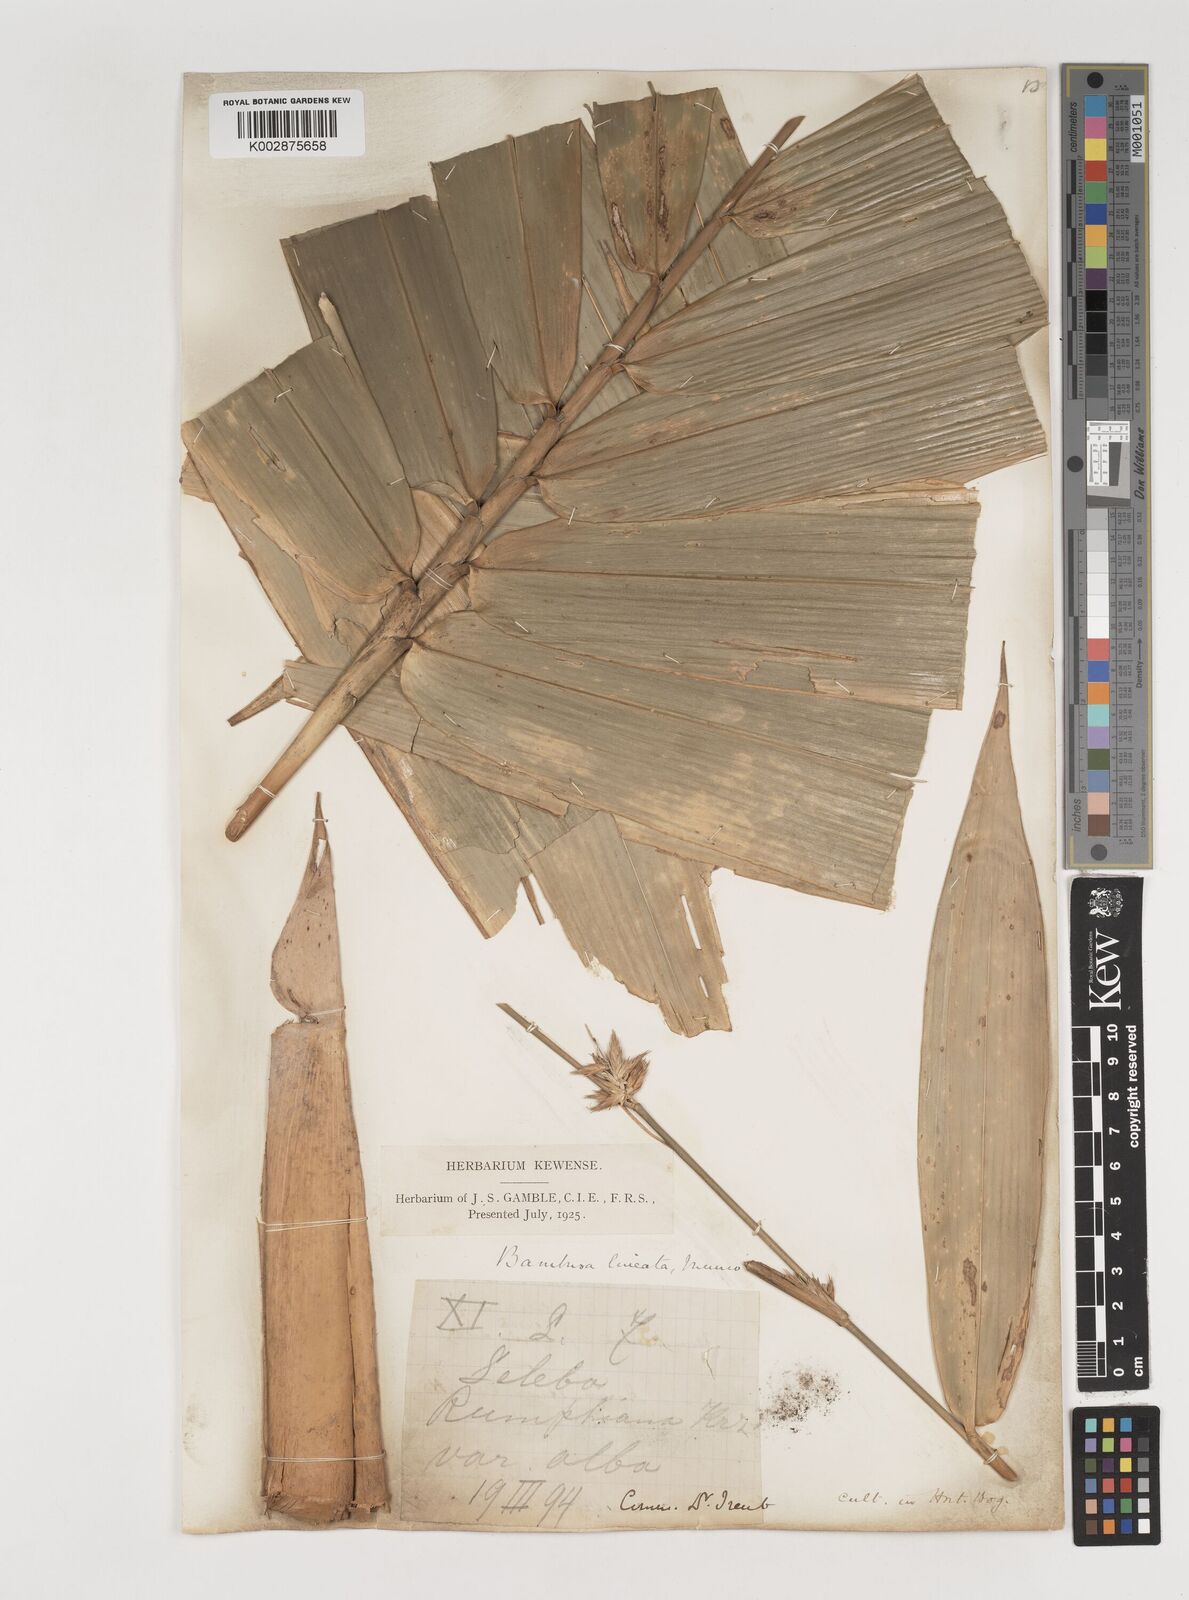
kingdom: Plantae
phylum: Tracheophyta
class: Liliopsida
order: Poales
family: Poaceae
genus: Neololeba
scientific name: Neololeba atra
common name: Cape bamboo
